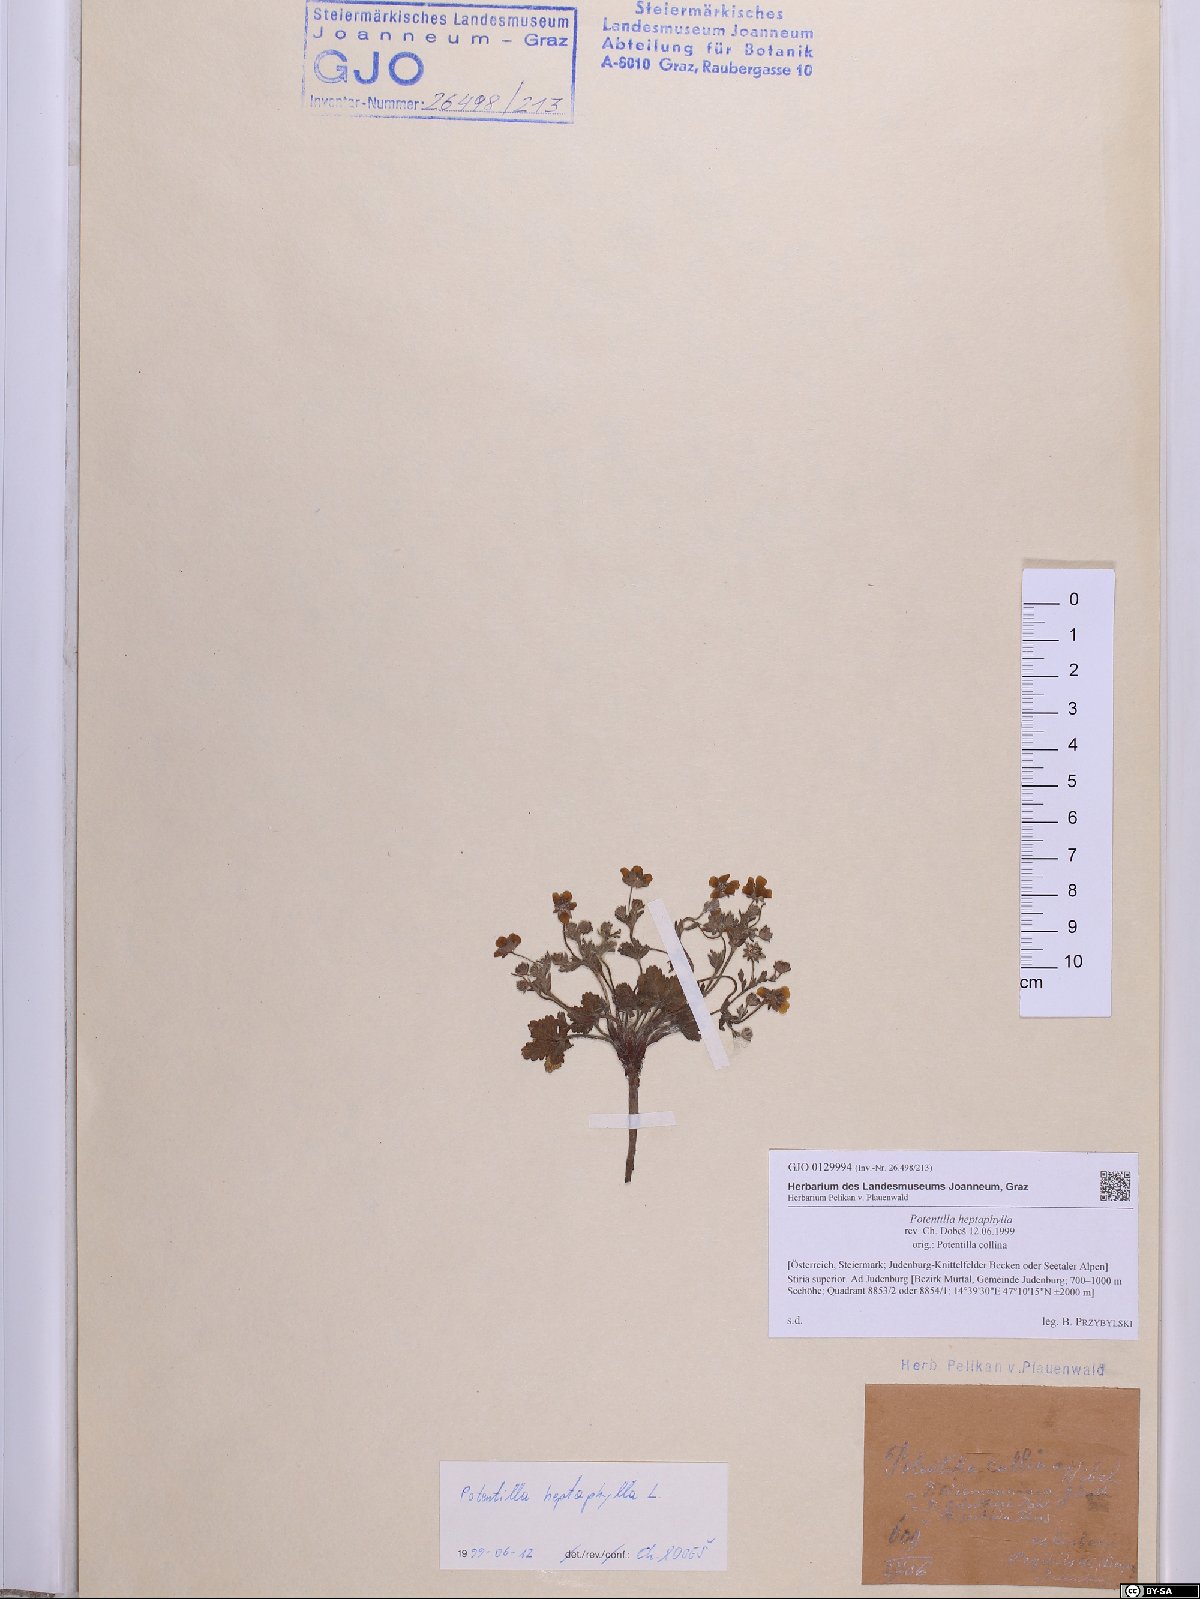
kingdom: Plantae
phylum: Tracheophyta
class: Magnoliopsida
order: Rosales
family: Rosaceae
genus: Potentilla
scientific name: Potentilla heptaphylla
